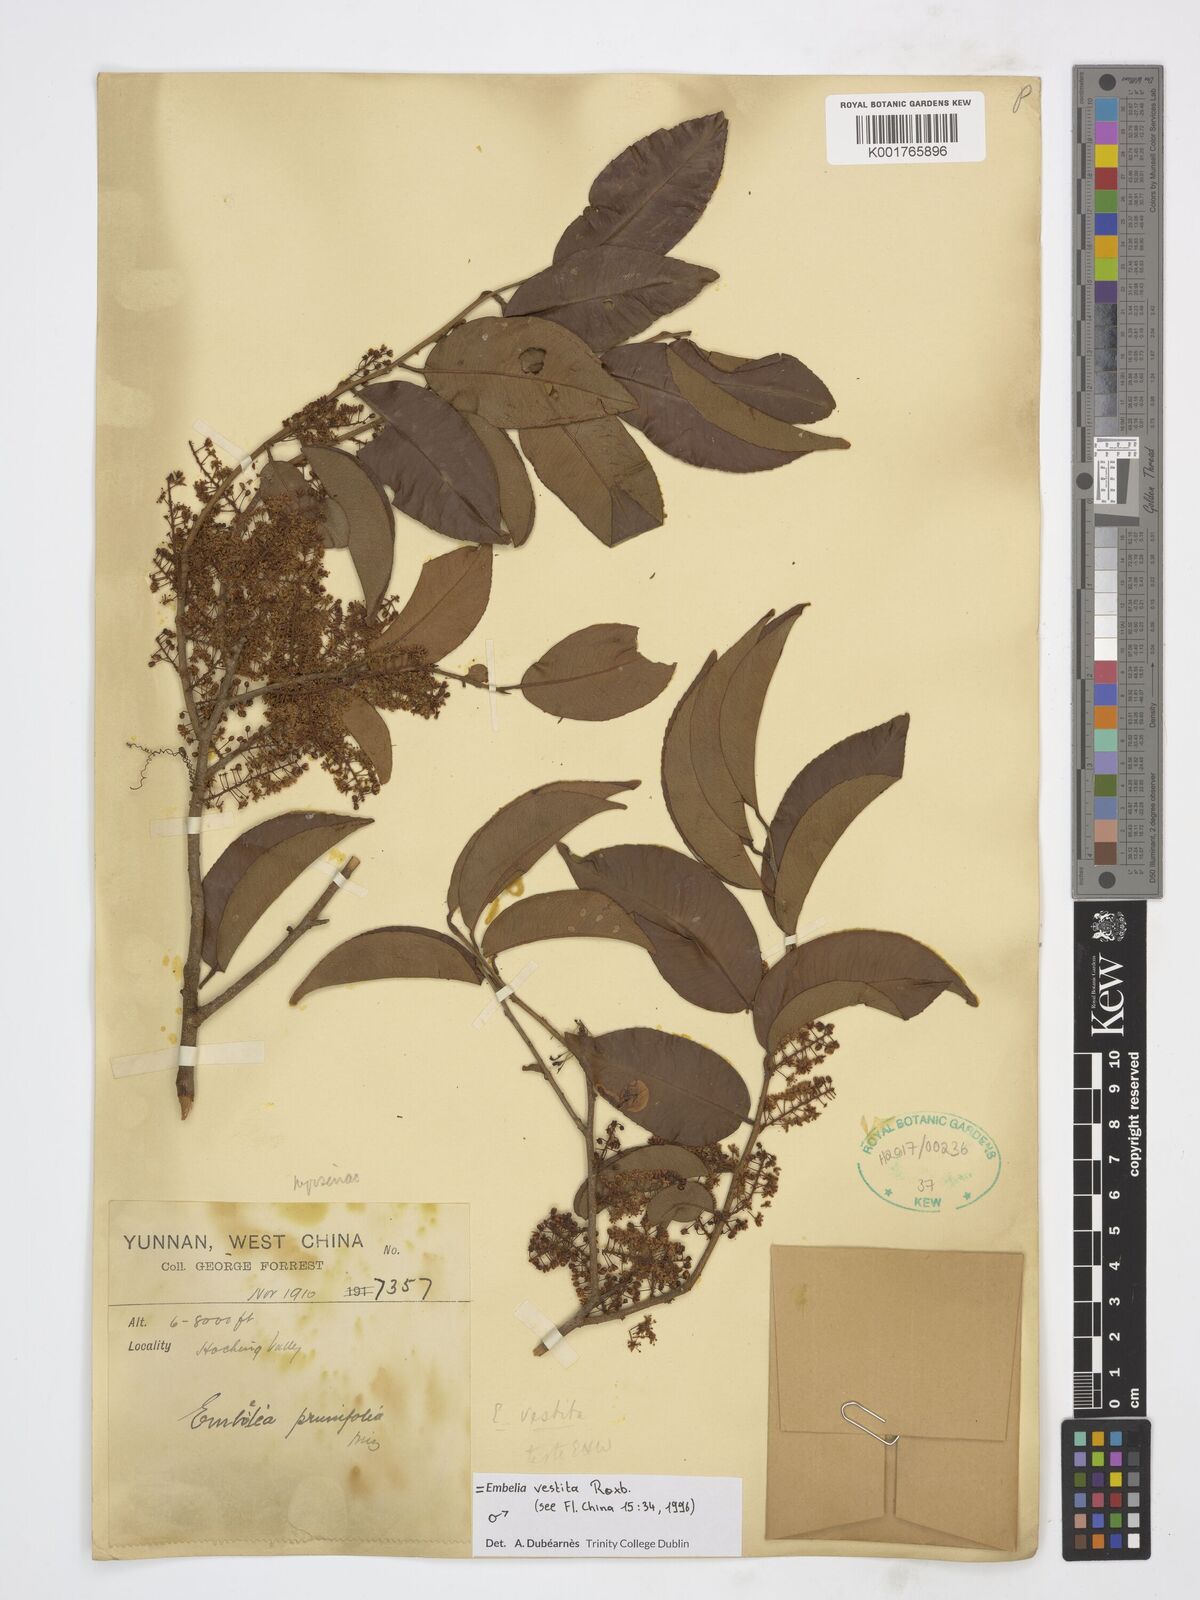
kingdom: Plantae
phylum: Tracheophyta
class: Magnoliopsida
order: Ericales
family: Primulaceae
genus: Embelia
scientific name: Embelia vestita
